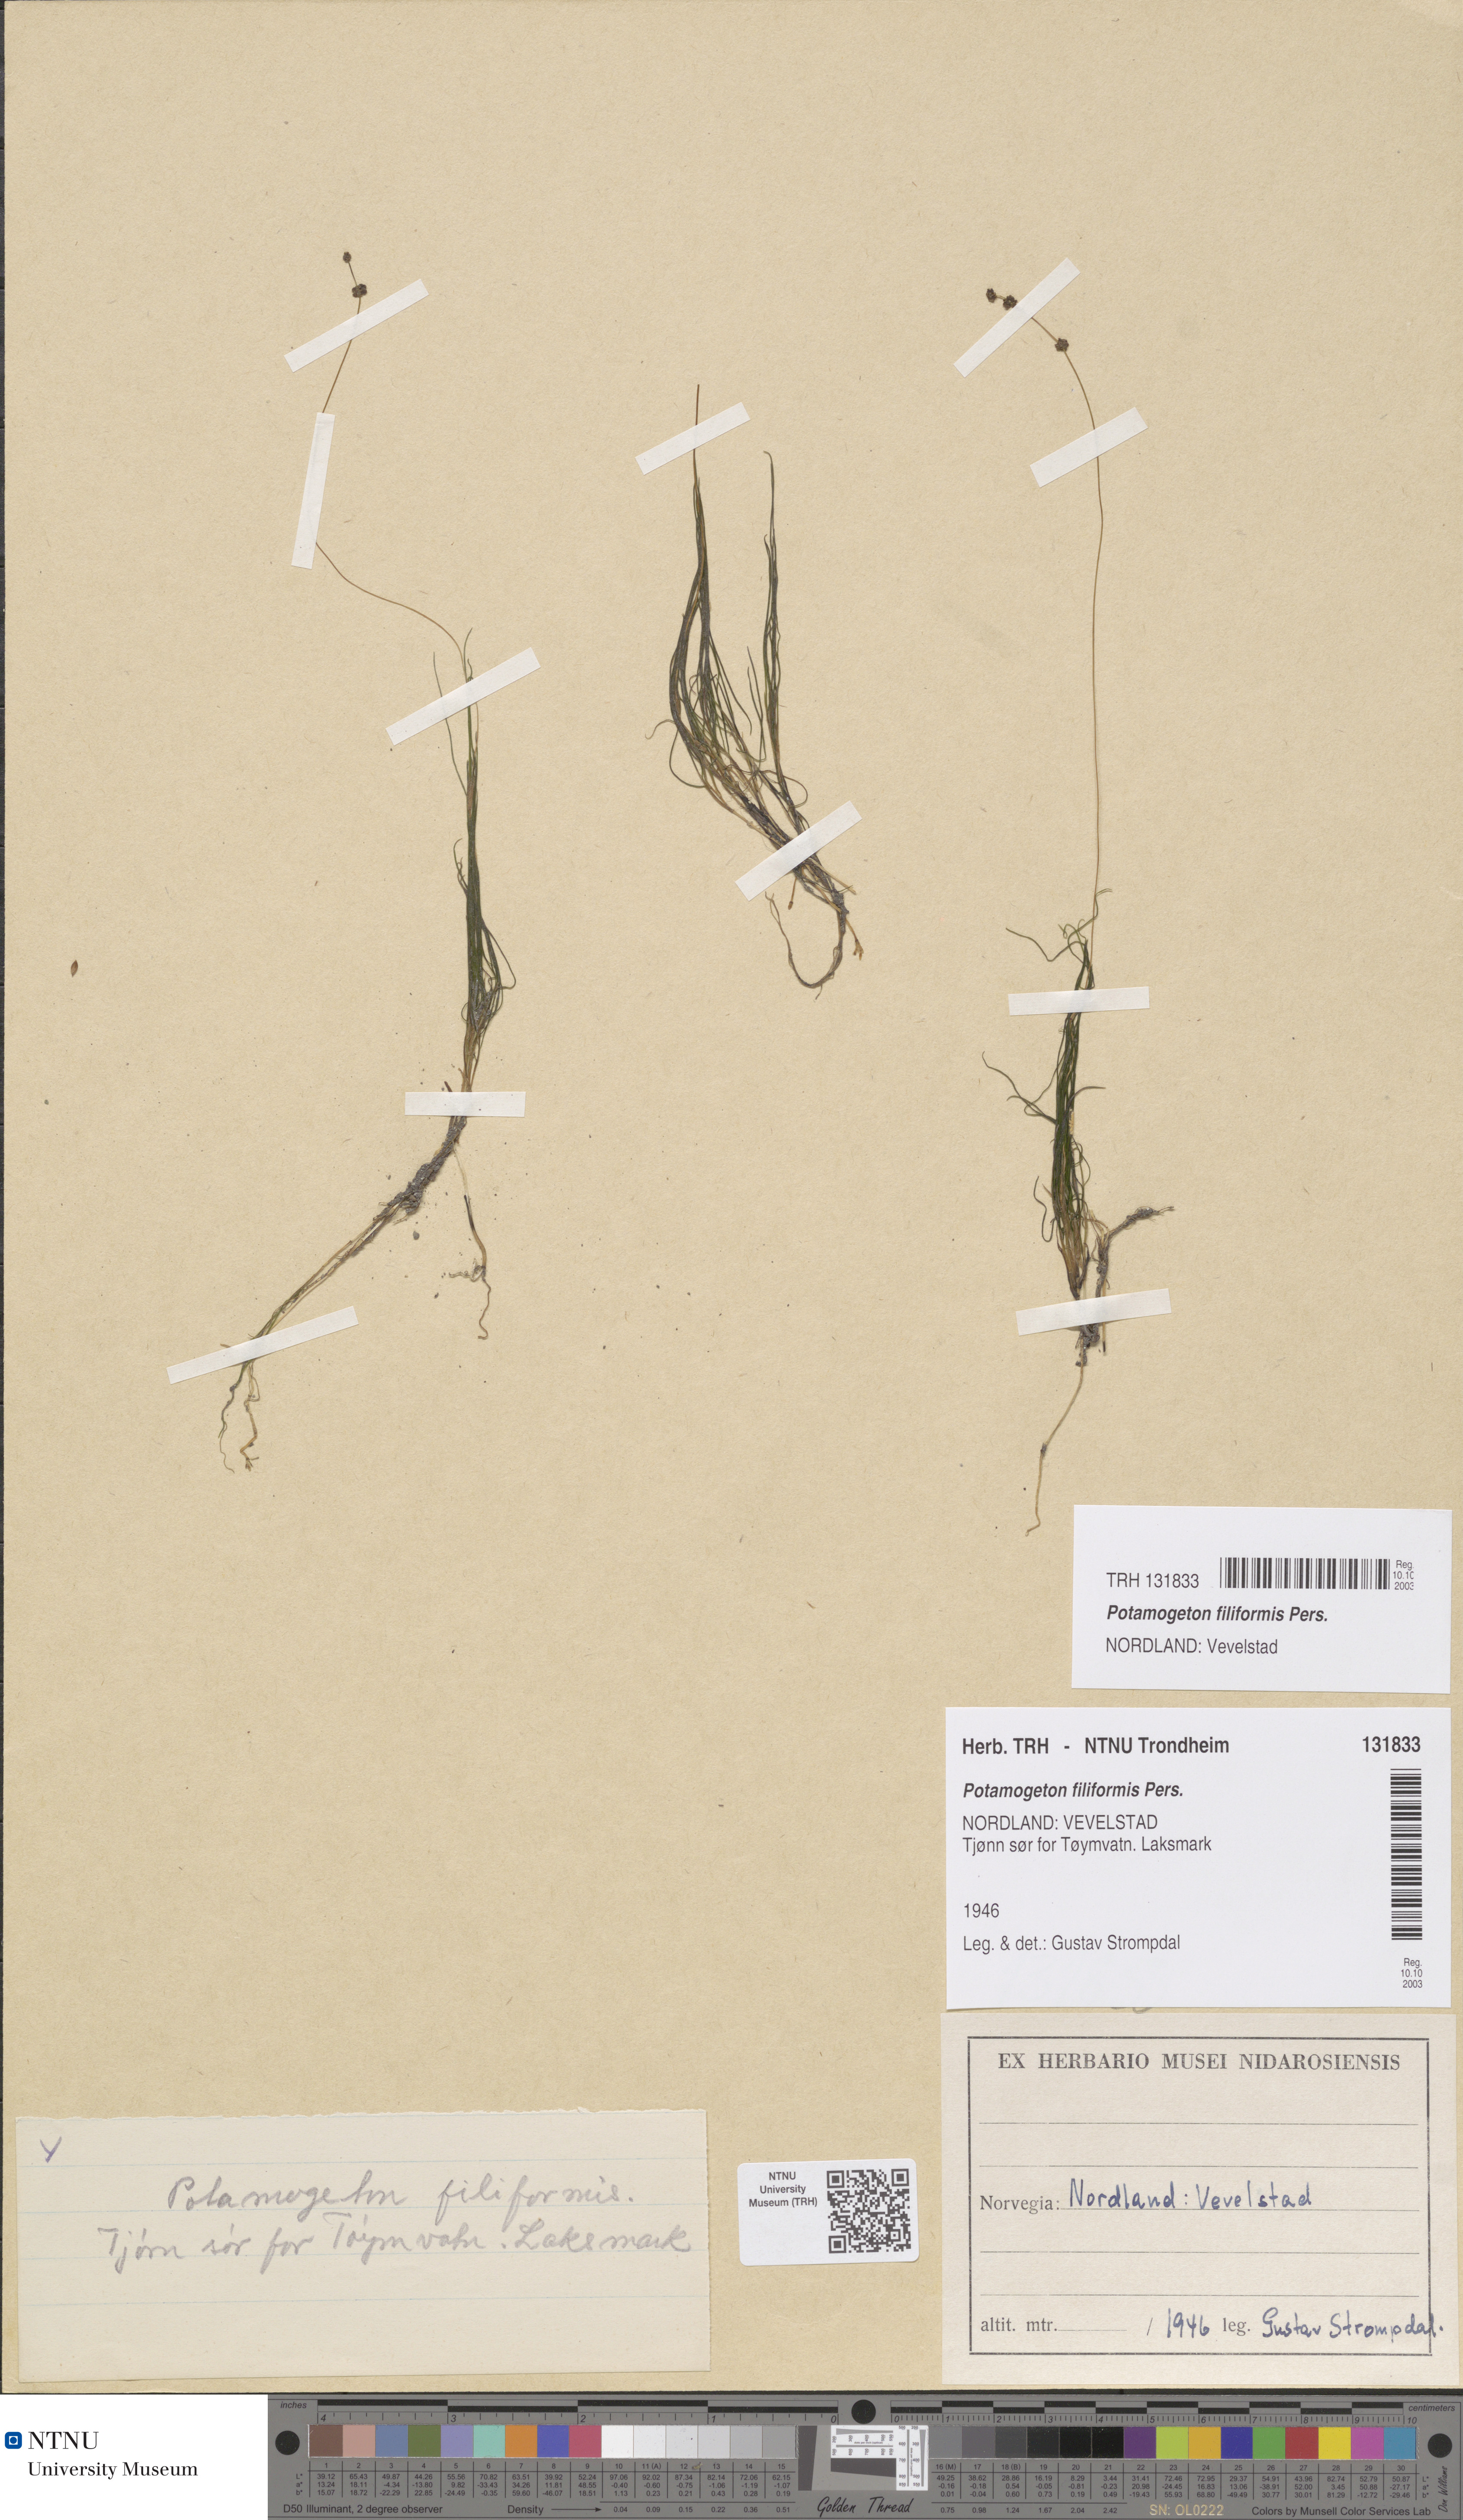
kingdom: Plantae
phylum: Tracheophyta
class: Liliopsida
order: Alismatales
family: Potamogetonaceae
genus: Stuckenia
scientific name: Stuckenia filiformis
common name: Alpine thread-leaved pondweed
